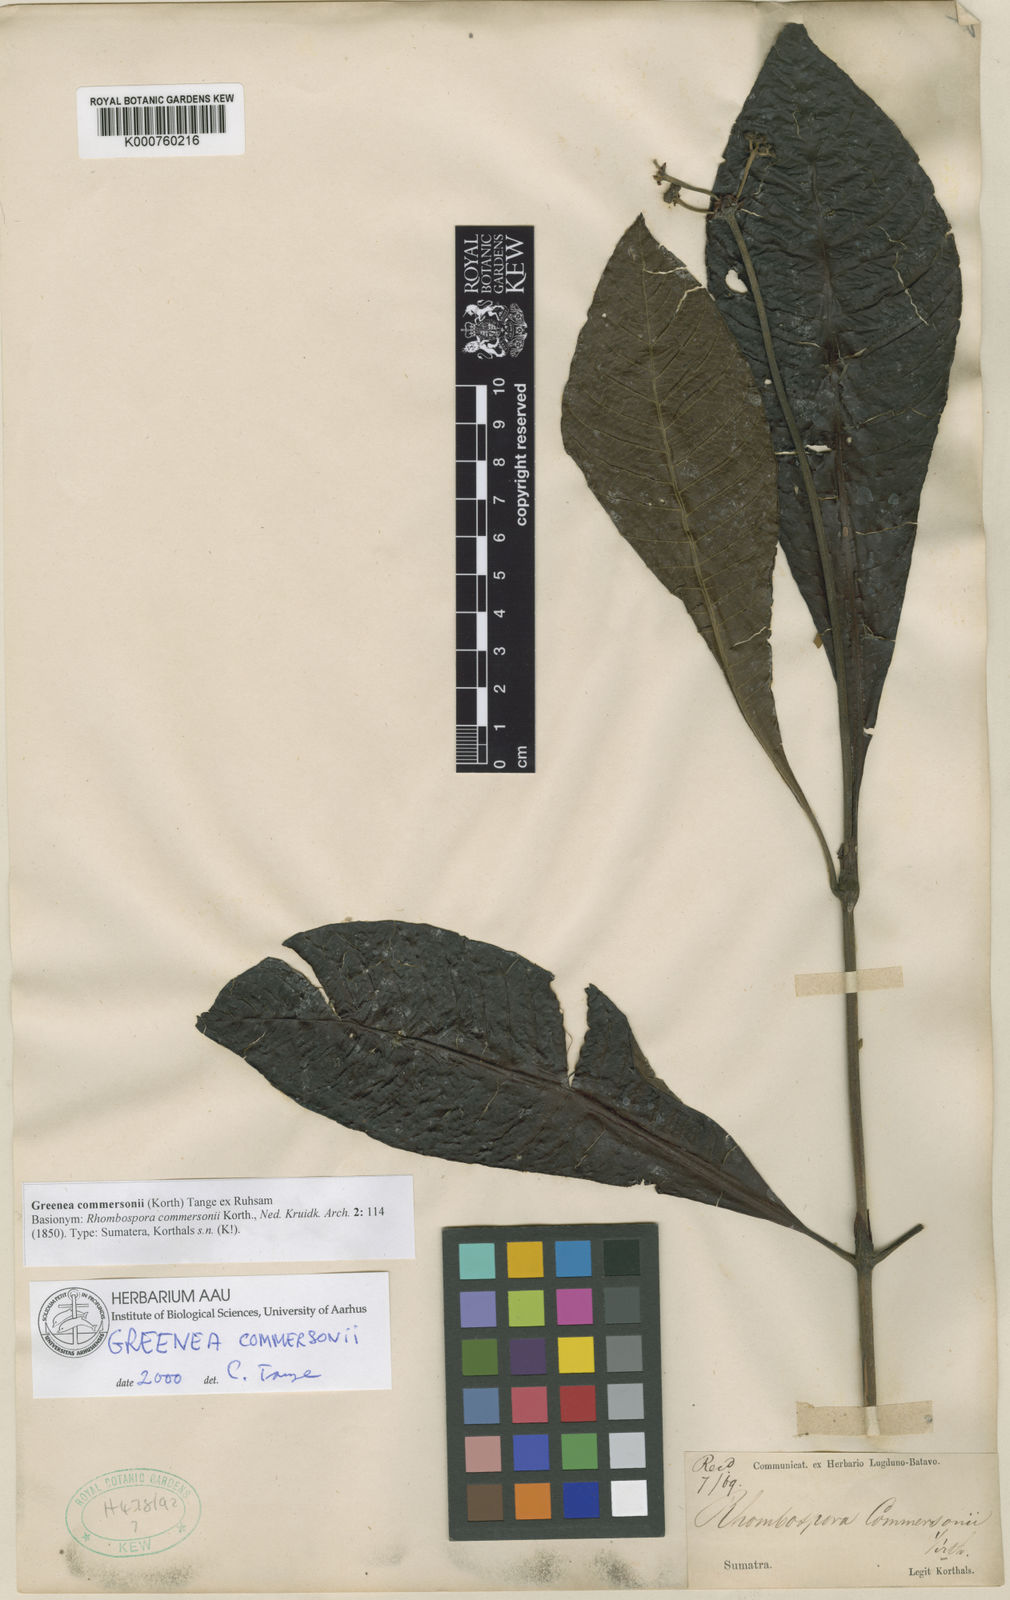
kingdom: Plantae
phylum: Tracheophyta
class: Magnoliopsida
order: Gentianales
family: Rubiaceae
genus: Greenea
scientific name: Greenea commersonii
